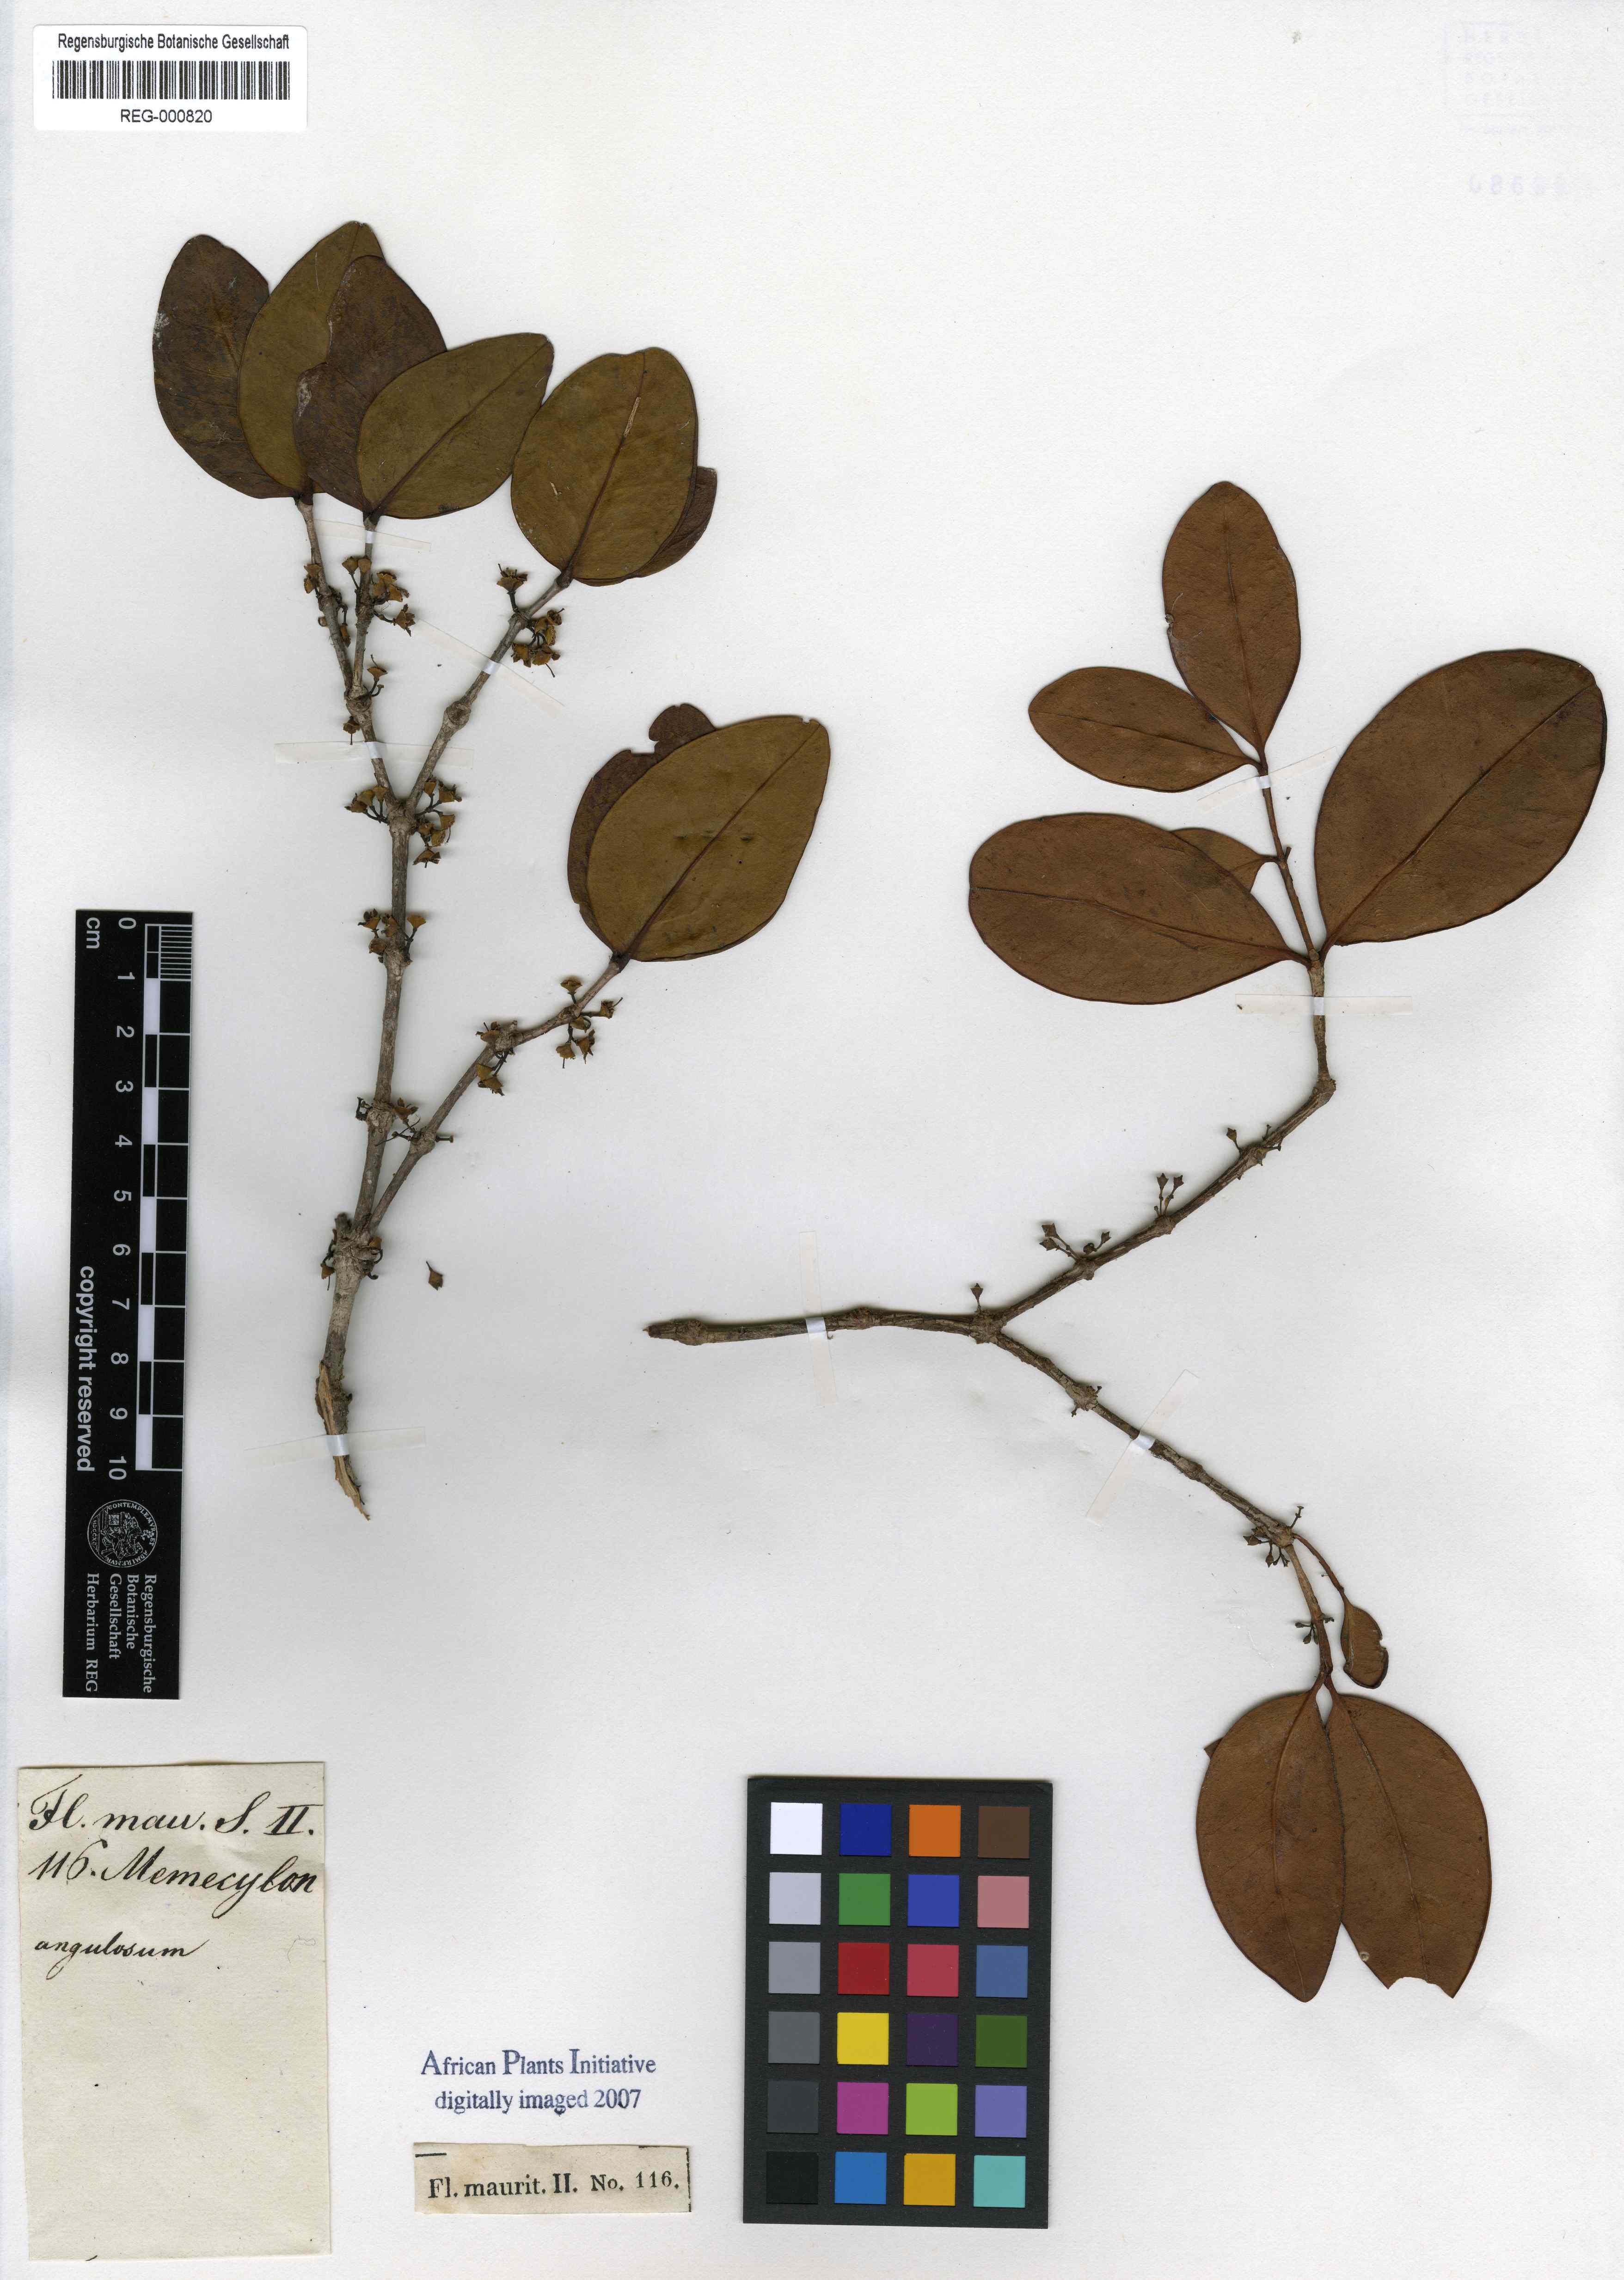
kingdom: Plantae
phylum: Tracheophyta
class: Magnoliopsida
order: Myrtales
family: Melastomataceae
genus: Memecylon
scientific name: Memecylon ovatifolium
